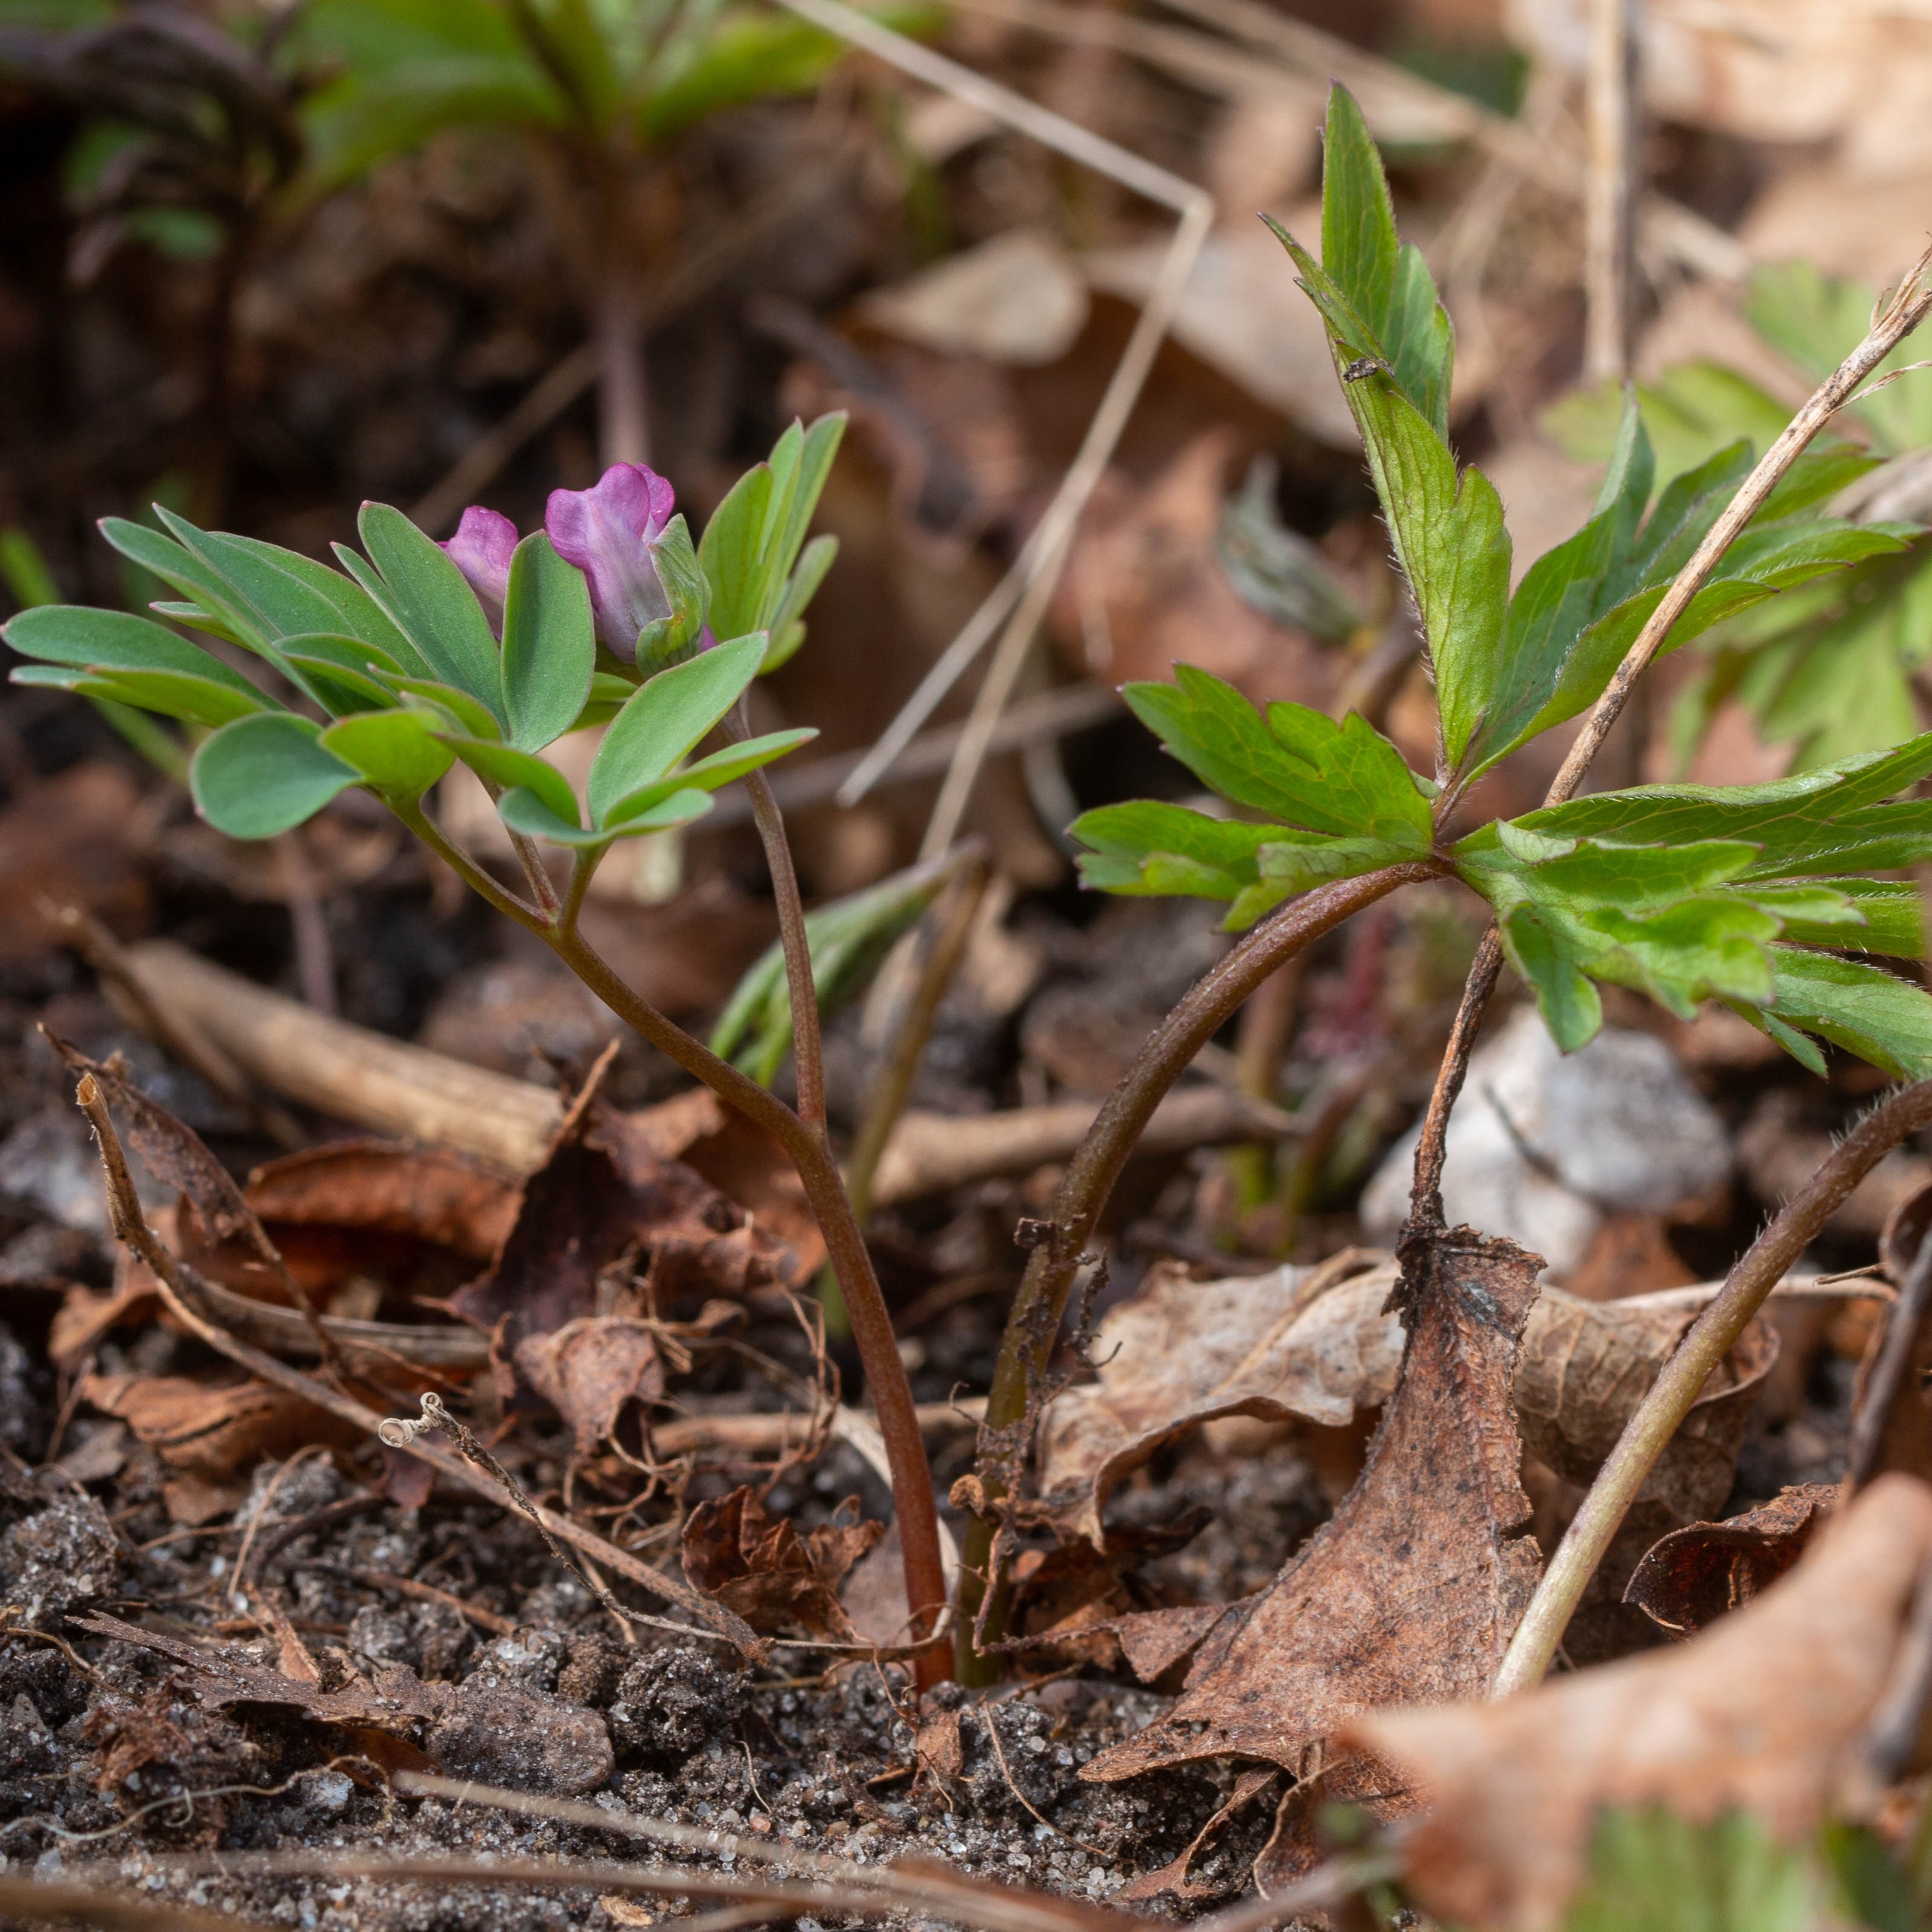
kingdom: Plantae
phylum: Tracheophyta
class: Magnoliopsida
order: Ranunculales
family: Papaveraceae
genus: Corydalis
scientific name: Corydalis intermedia
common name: Liden lærkespore
